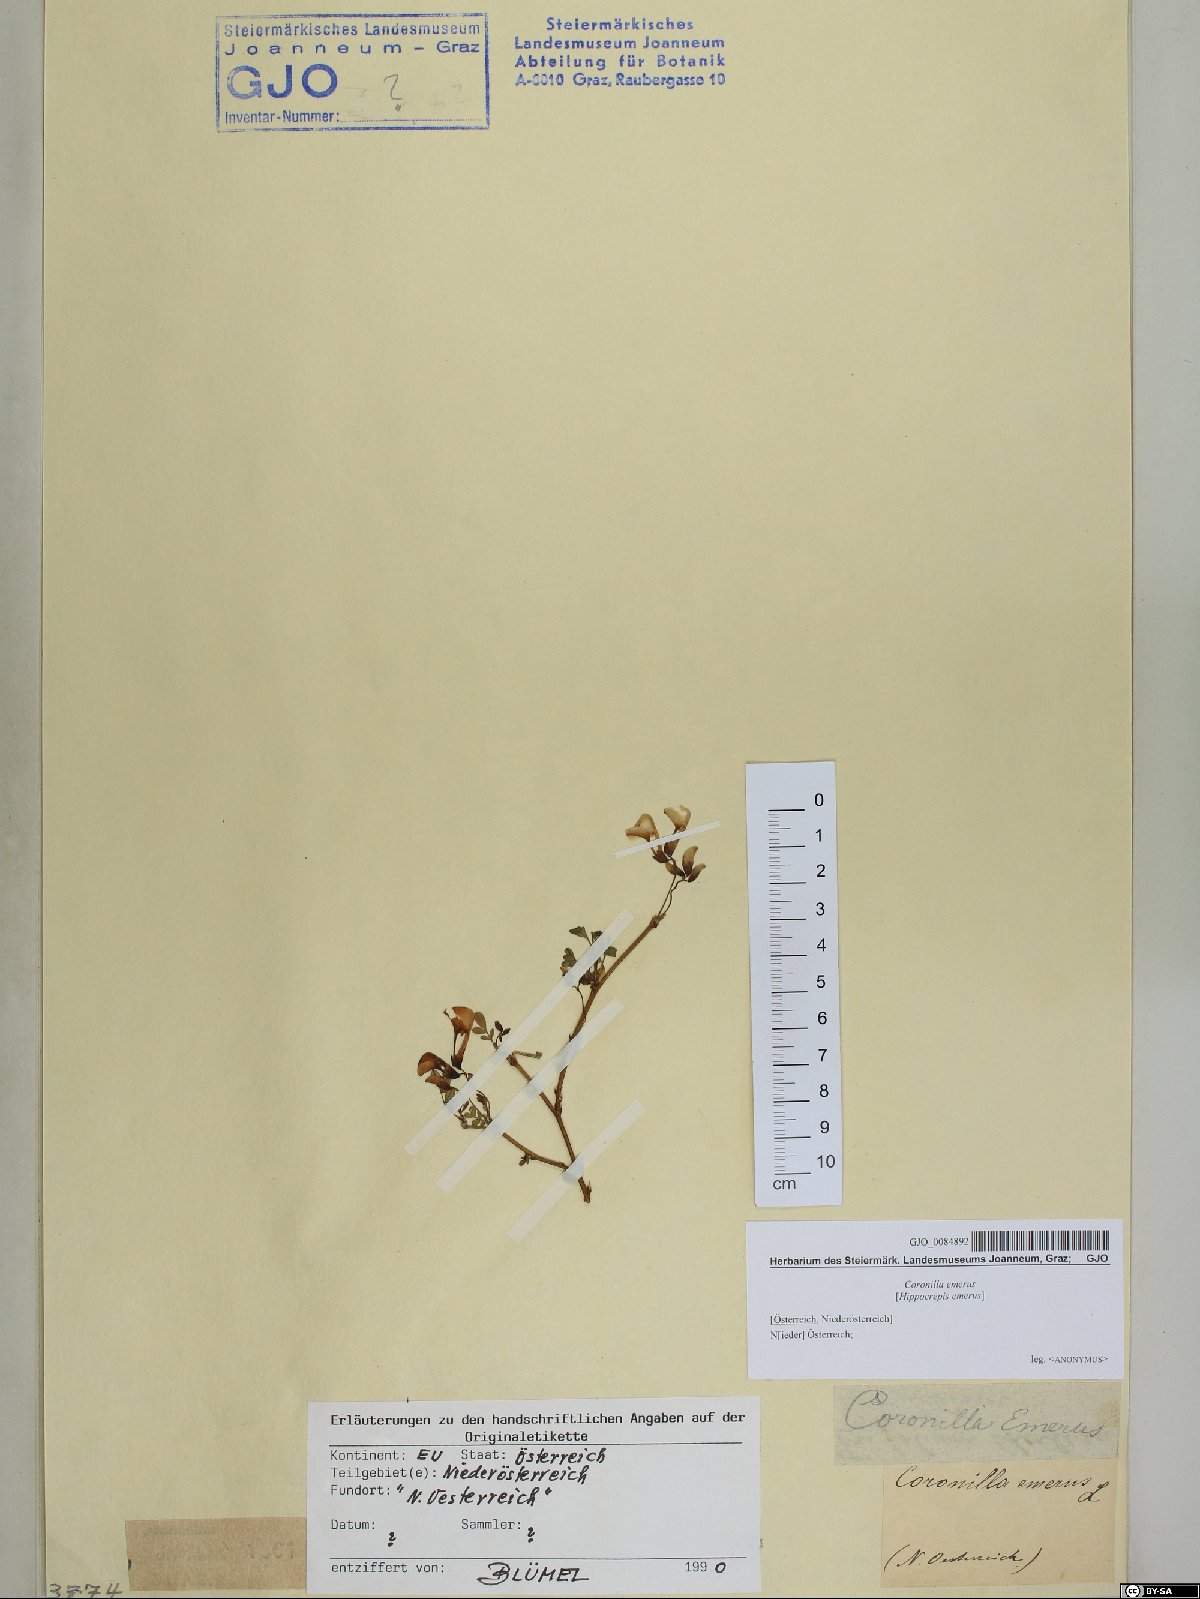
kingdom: Plantae
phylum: Tracheophyta
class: Magnoliopsida
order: Fabales
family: Fabaceae
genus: Hippocrepis
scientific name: Hippocrepis emerus
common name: Scorpion senna
